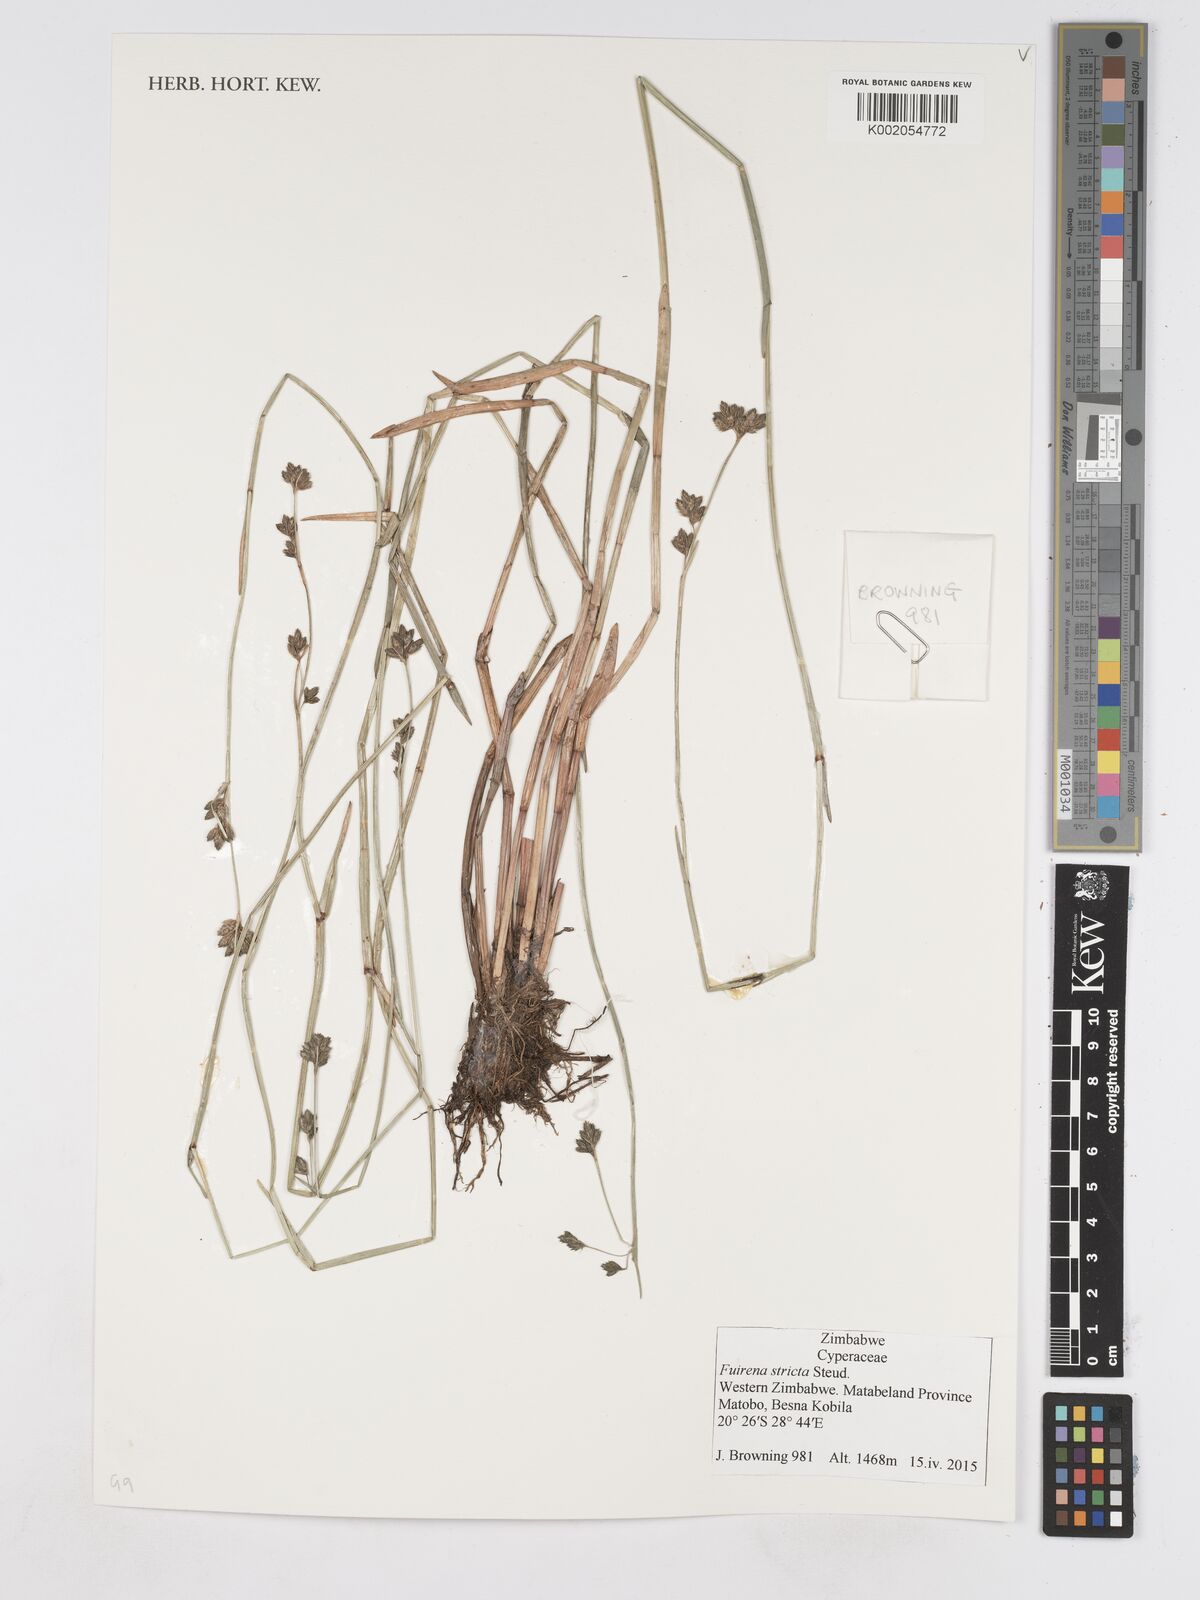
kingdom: Plantae
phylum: Tracheophyta
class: Liliopsida
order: Poales
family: Cyperaceae
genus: Fuirena
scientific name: Fuirena stricta
